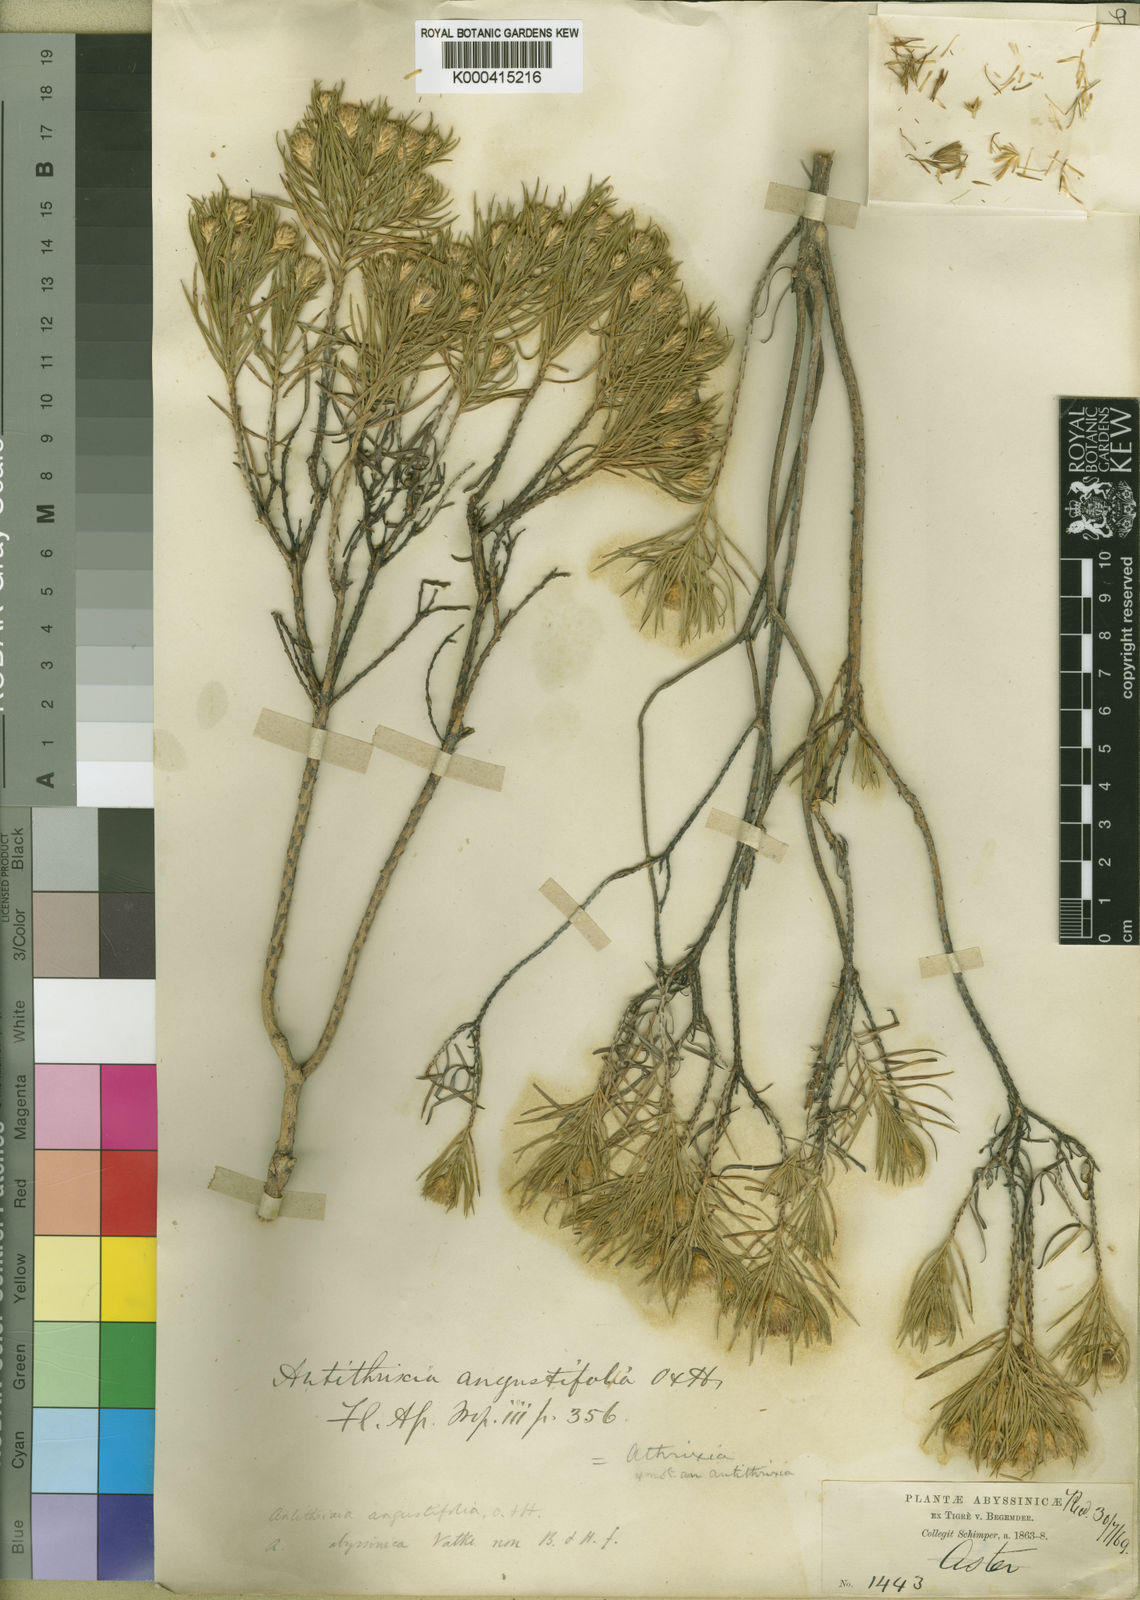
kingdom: Plantae
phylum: Tracheophyta
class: Magnoliopsida
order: Asterales
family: Asteraceae
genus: Arrowsmithia
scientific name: Arrowsmithia ericifolia
